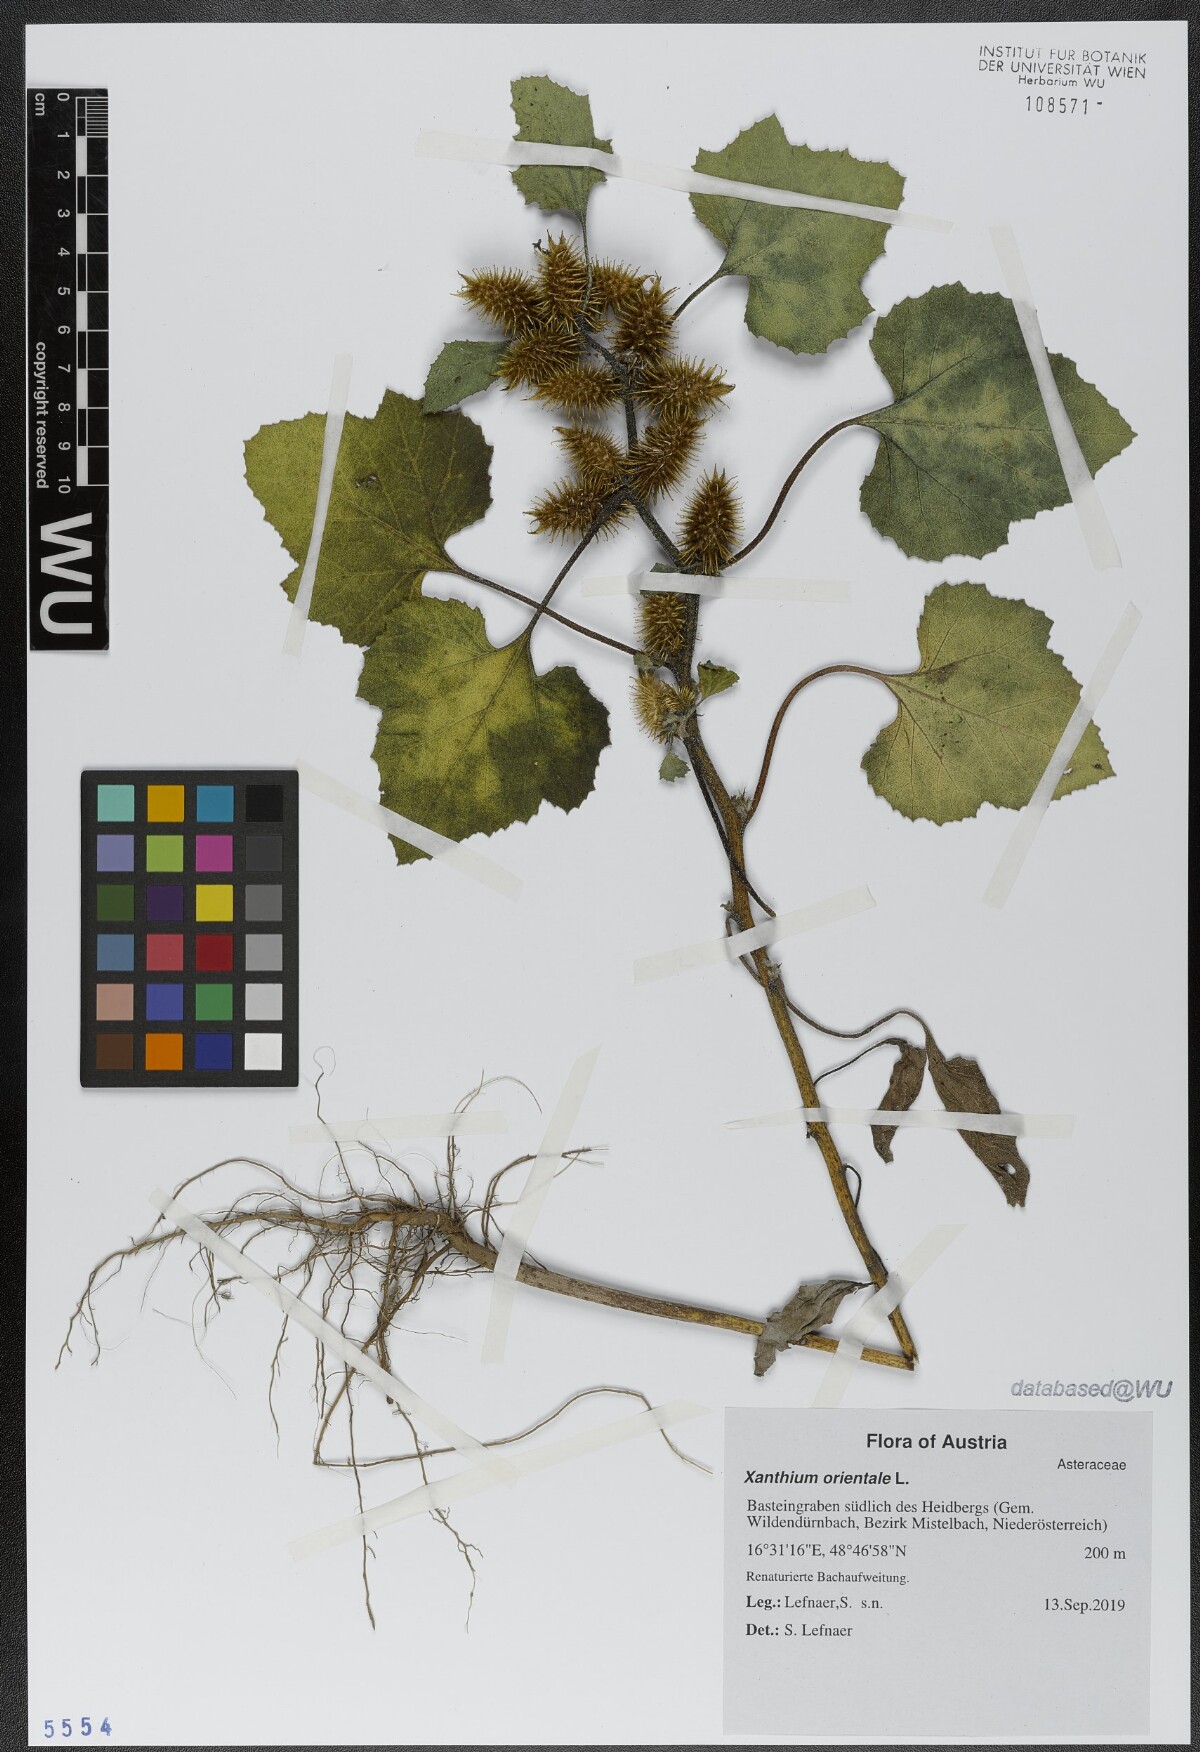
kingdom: Plantae
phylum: Tracheophyta
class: Magnoliopsida
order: Asterales
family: Asteraceae
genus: Xanthium
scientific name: Xanthium orientale
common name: Californian burr
